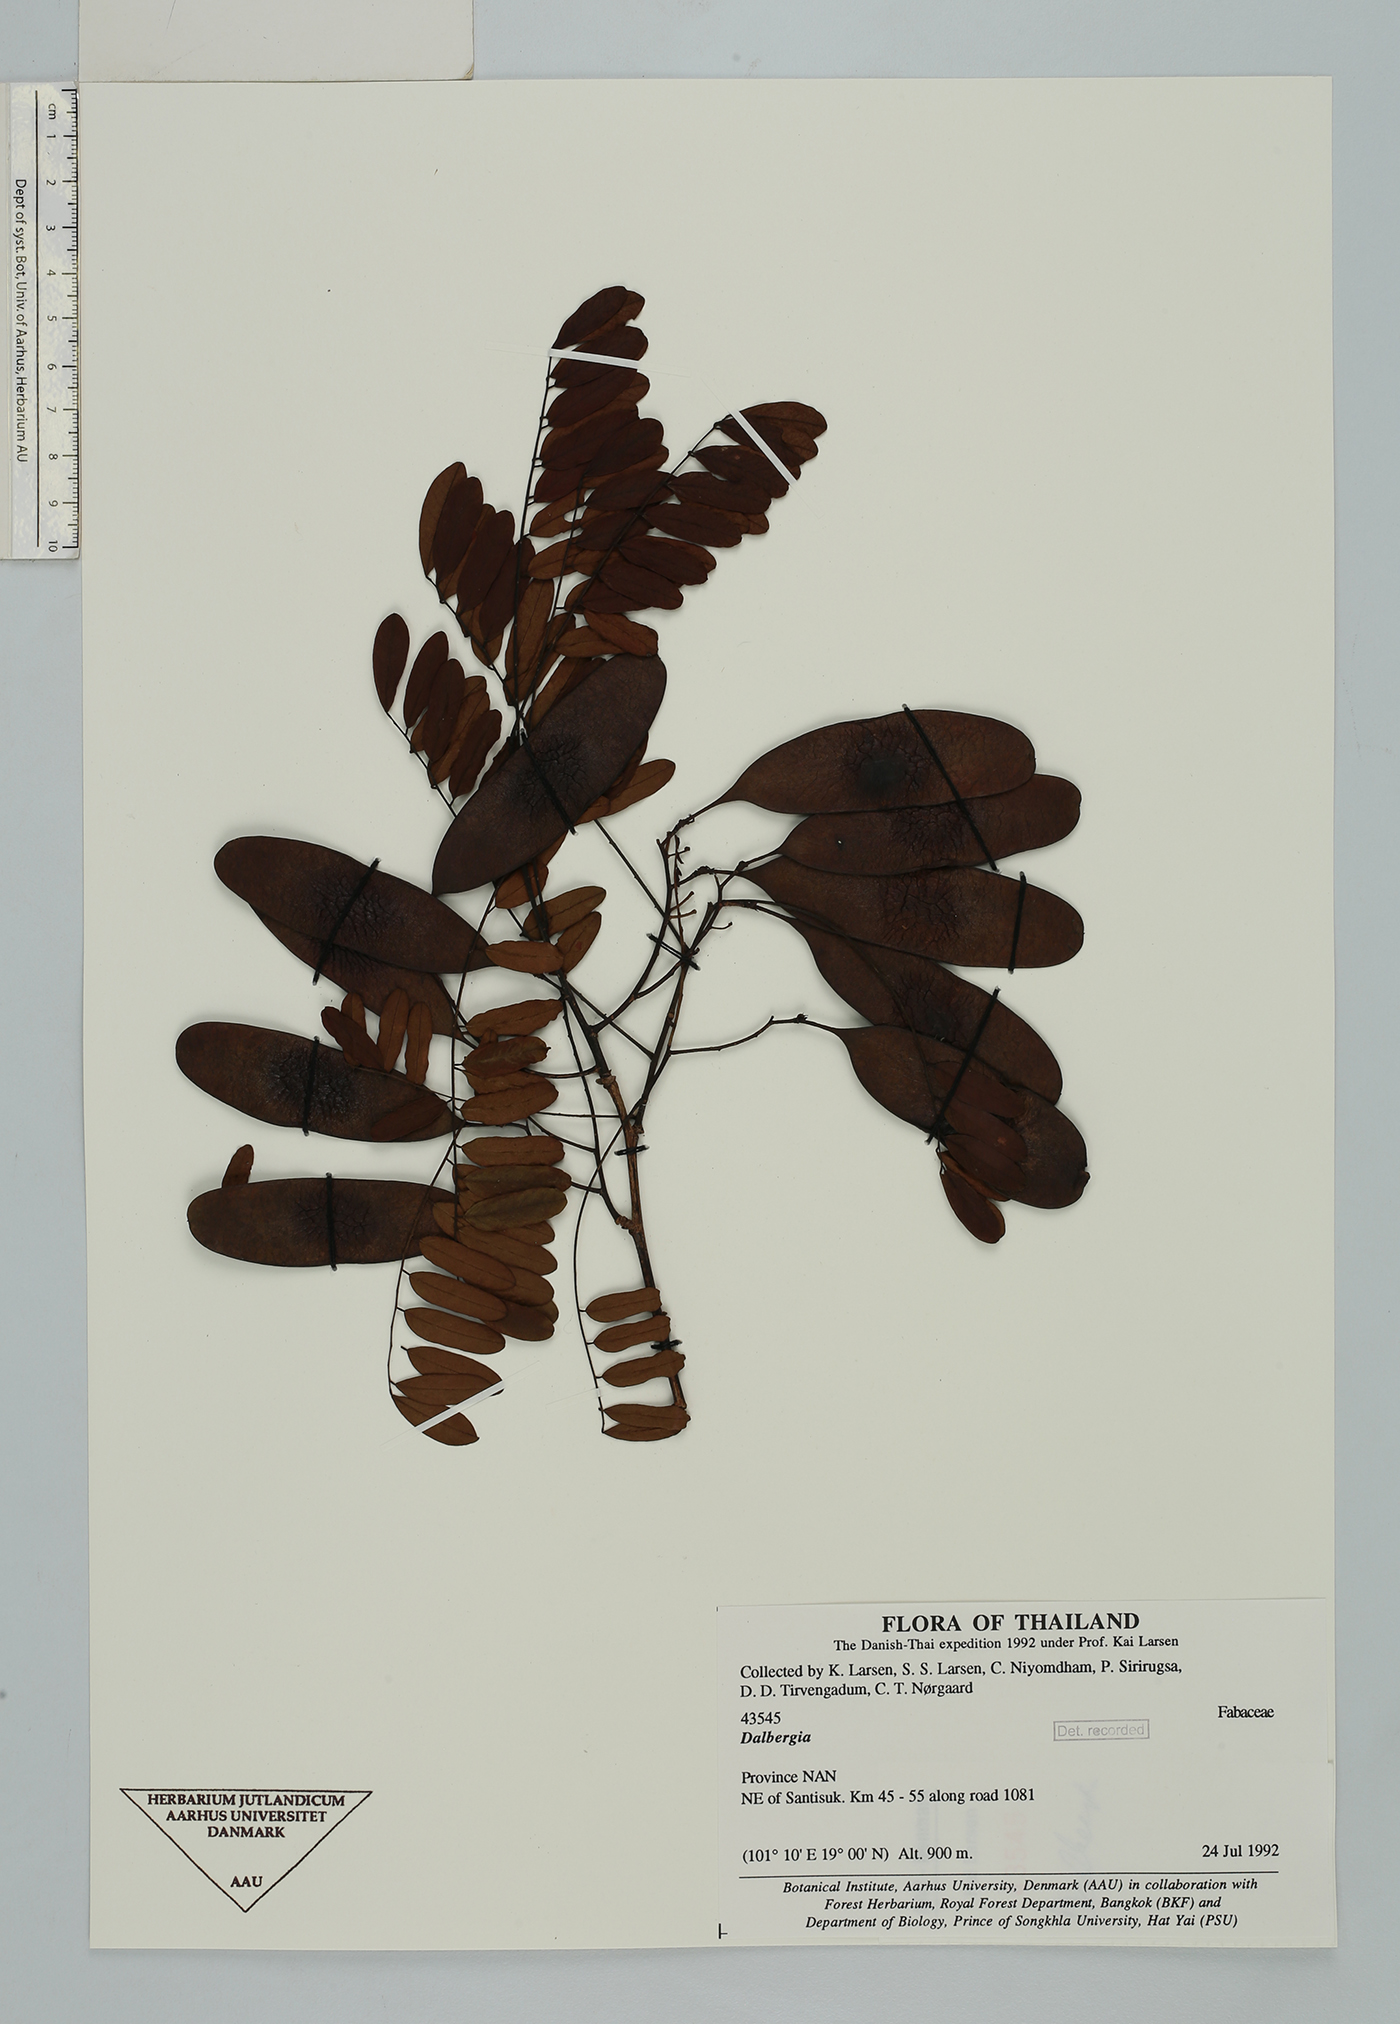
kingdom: Plantae
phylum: Tracheophyta
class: Magnoliopsida
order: Fabales
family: Fabaceae
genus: Dalbergia
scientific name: Dalbergia
